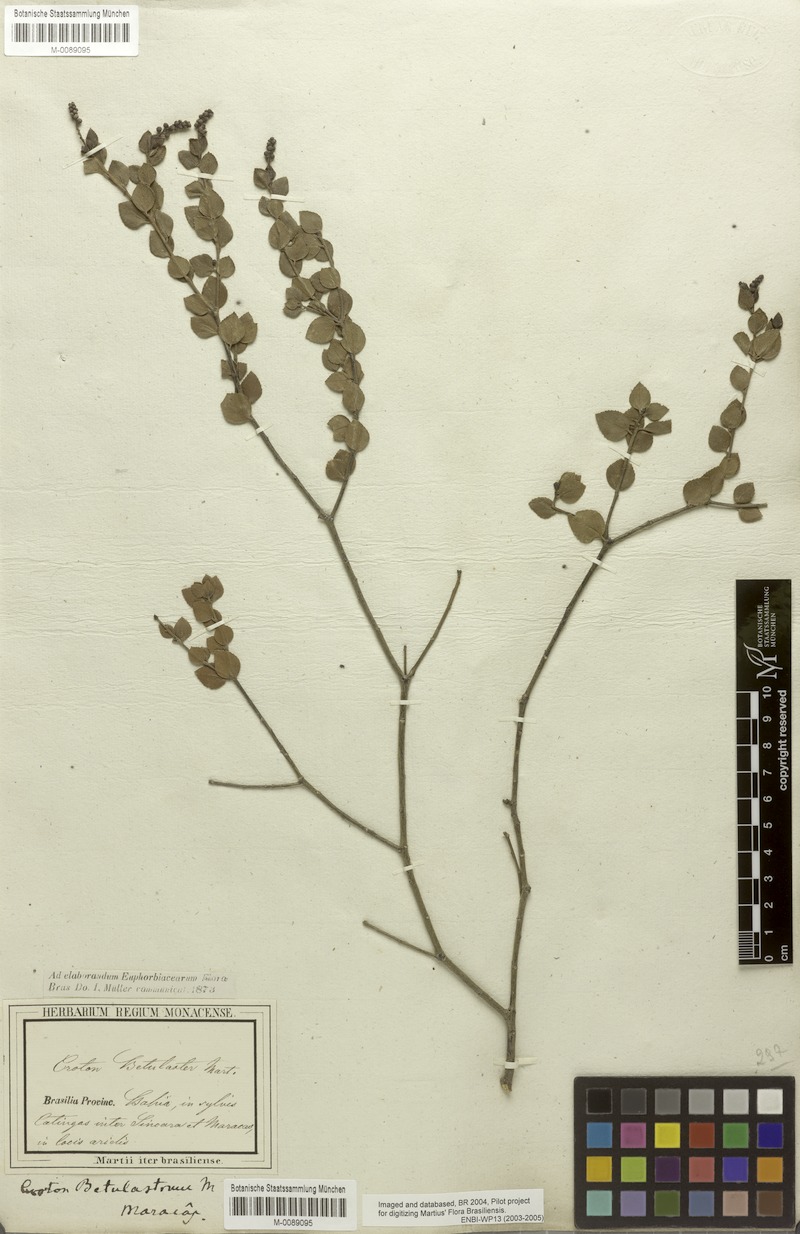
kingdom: Plantae
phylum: Tracheophyta
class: Magnoliopsida
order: Malpighiales
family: Euphorbiaceae
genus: Croton
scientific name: Croton betulaster
